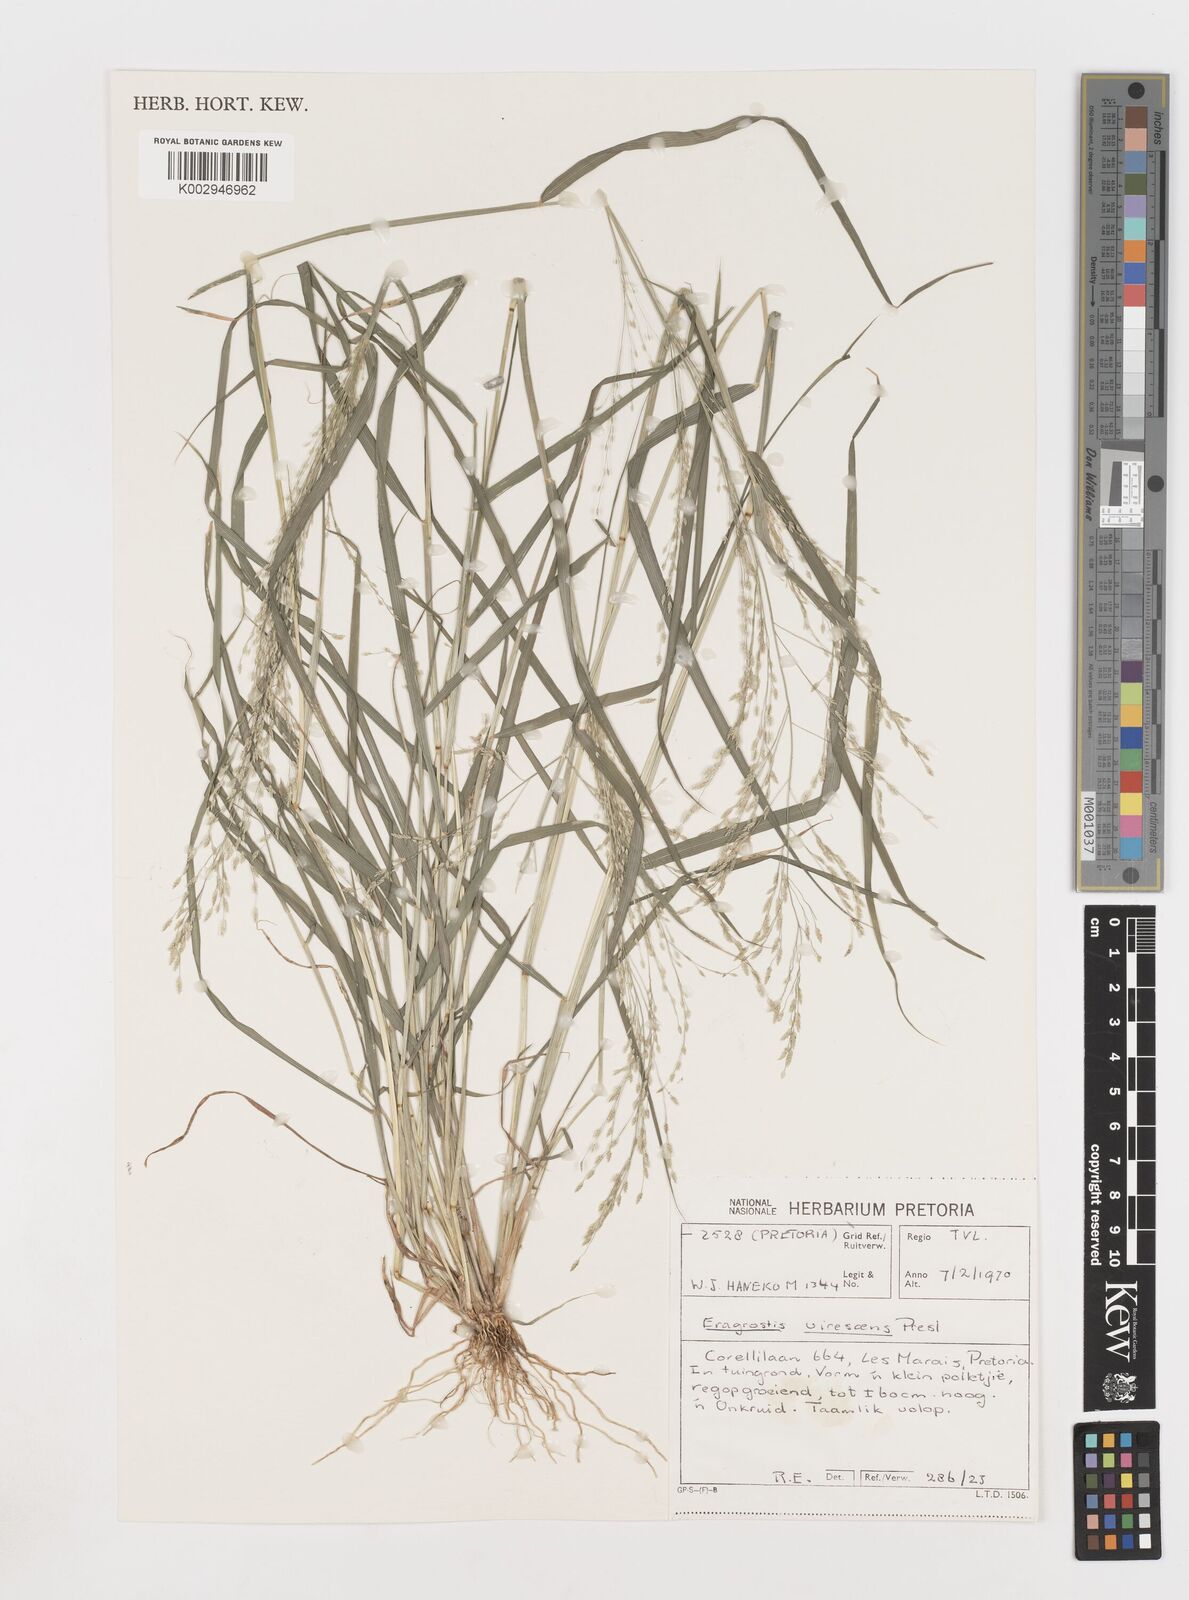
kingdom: Plantae
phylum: Tracheophyta
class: Liliopsida
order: Poales
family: Poaceae
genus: Eragrostis
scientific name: Eragrostis
